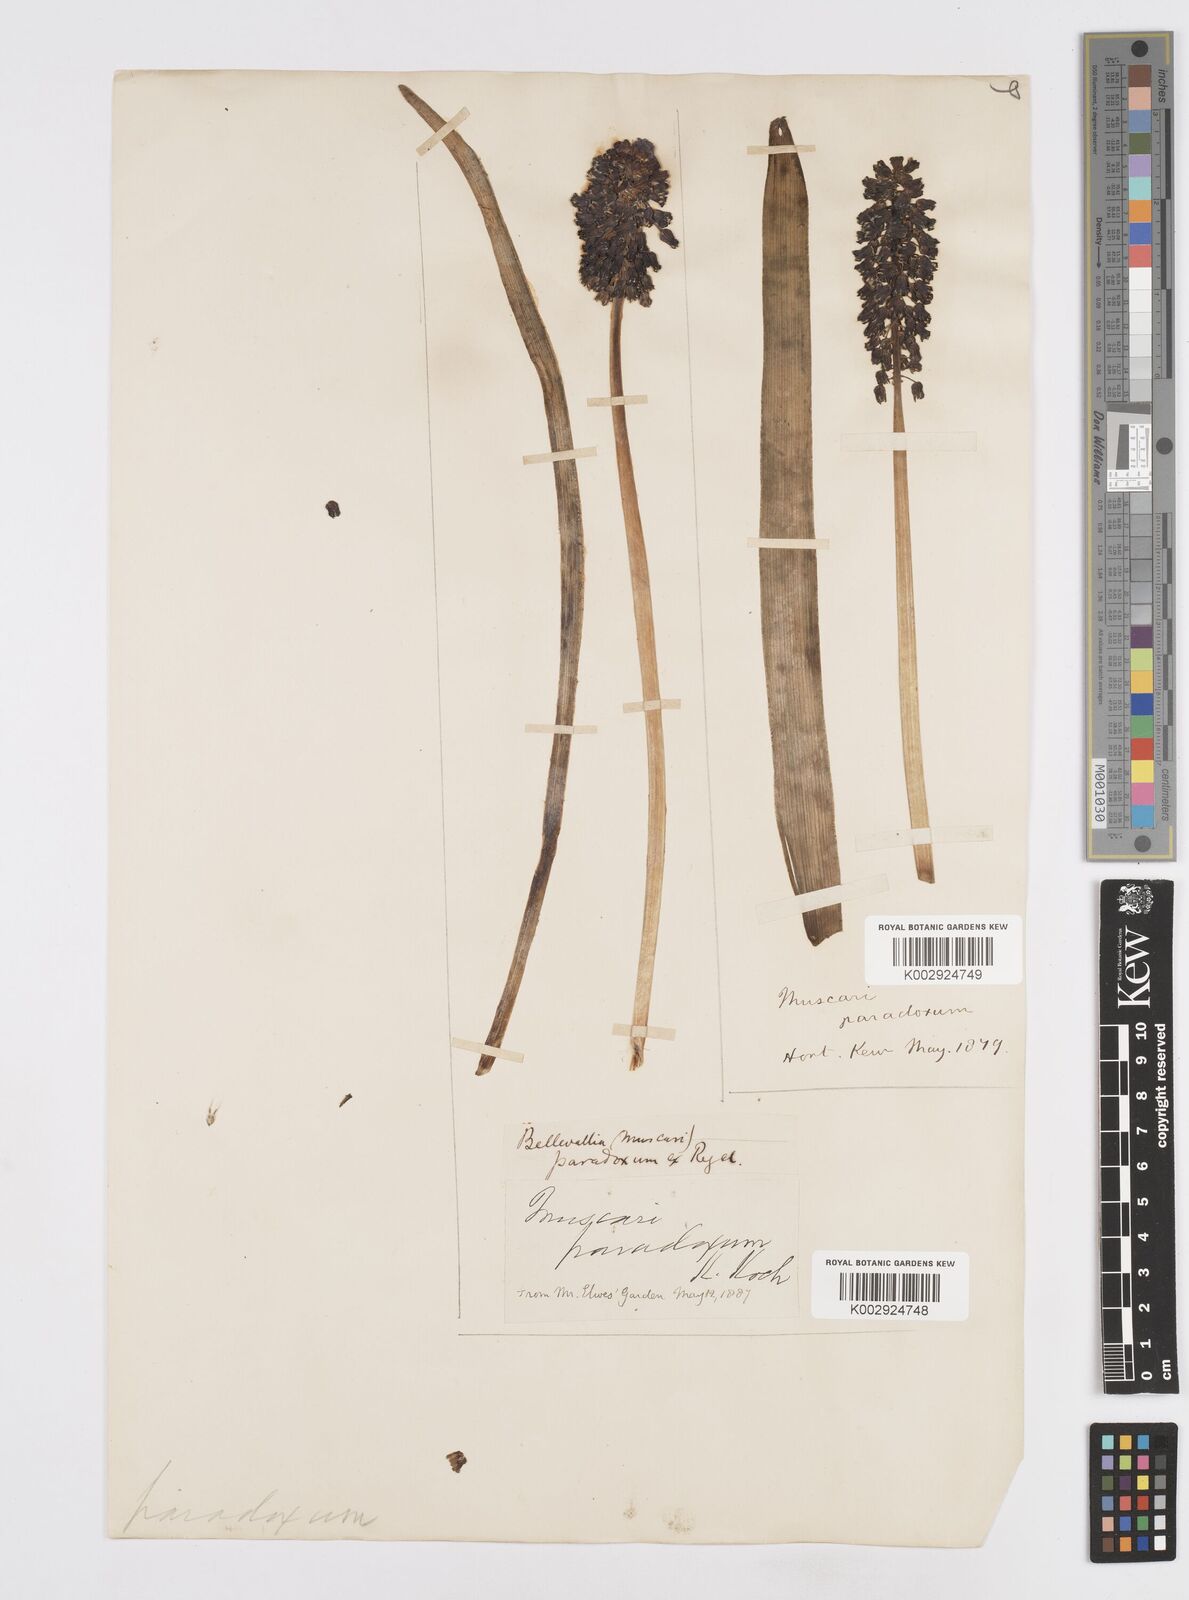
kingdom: Plantae
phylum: Tracheophyta
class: Liliopsida
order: Asparagales
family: Asparagaceae
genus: Bellevalia
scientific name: Bellevalia paradoxa
